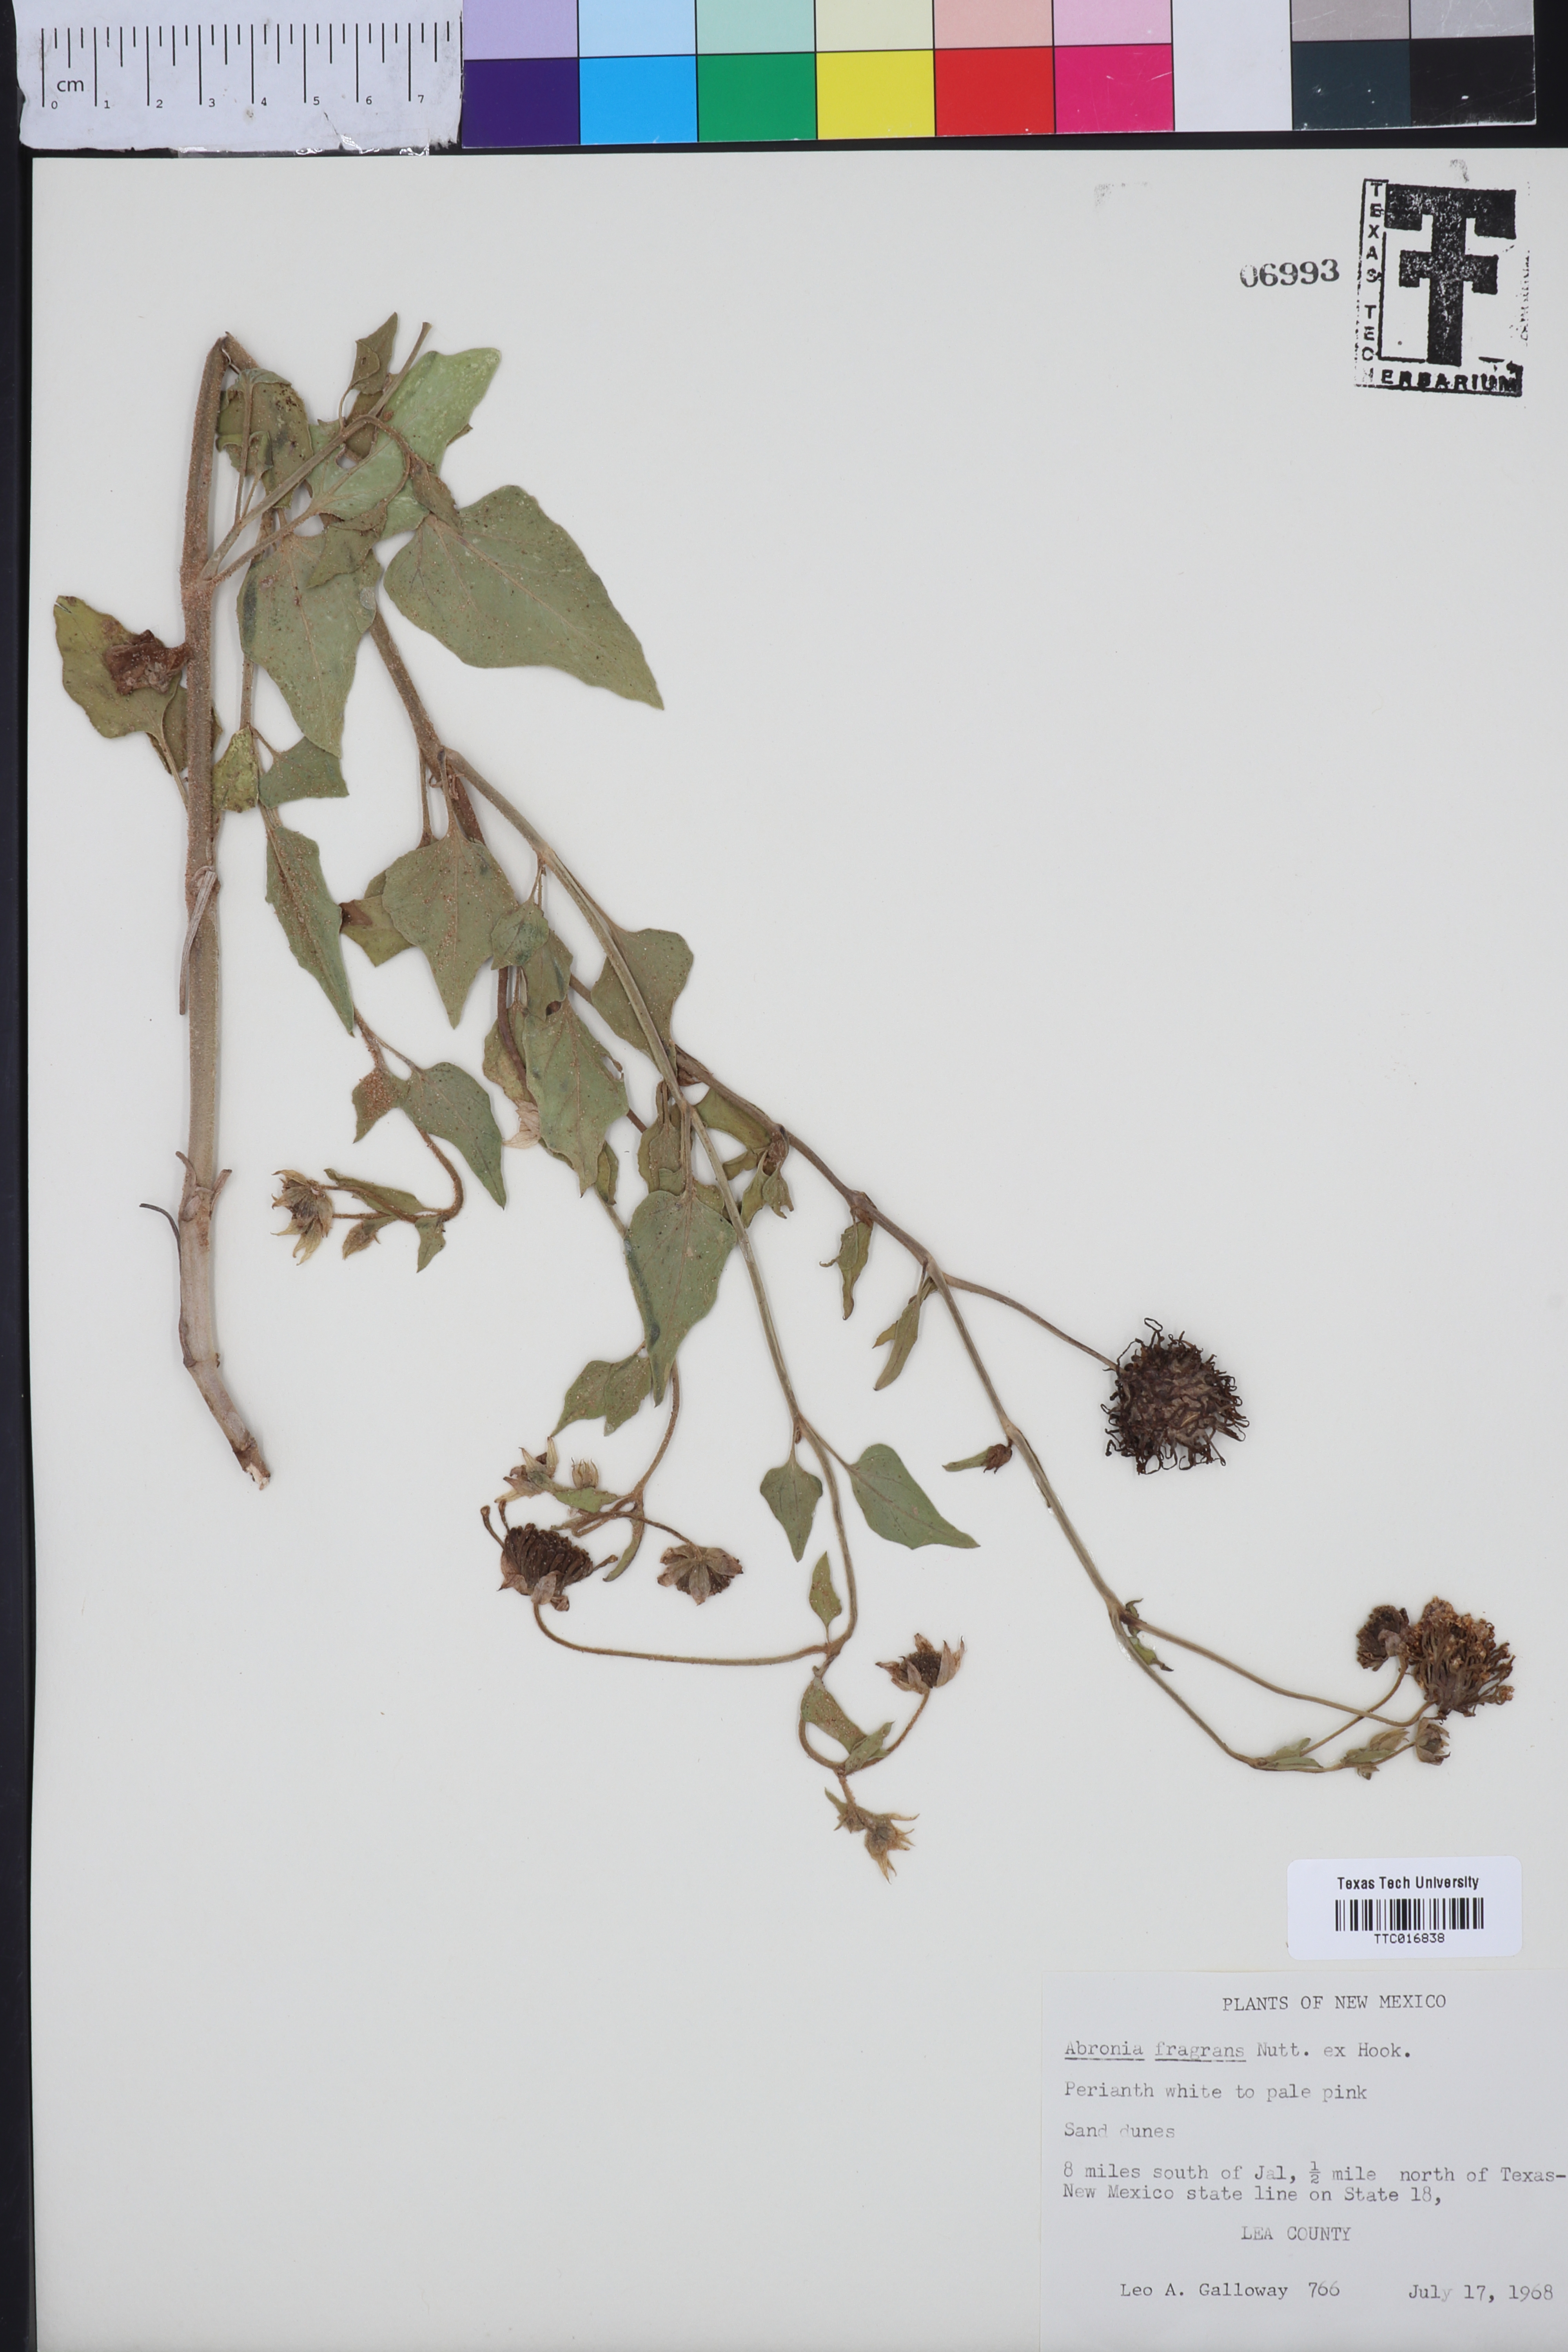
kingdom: Plantae
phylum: Tracheophyta
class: Magnoliopsida
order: Caryophyllales
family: Nyctaginaceae
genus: Abronia
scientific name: Abronia fragrans
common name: Fragrant sand-verbena
